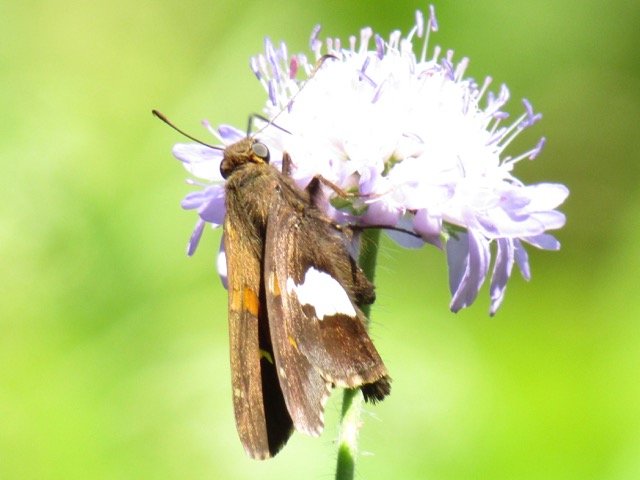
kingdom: Animalia
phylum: Arthropoda
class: Insecta
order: Lepidoptera
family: Hesperiidae
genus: Epargyreus
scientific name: Epargyreus clarus
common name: Silver-spotted Skipper
